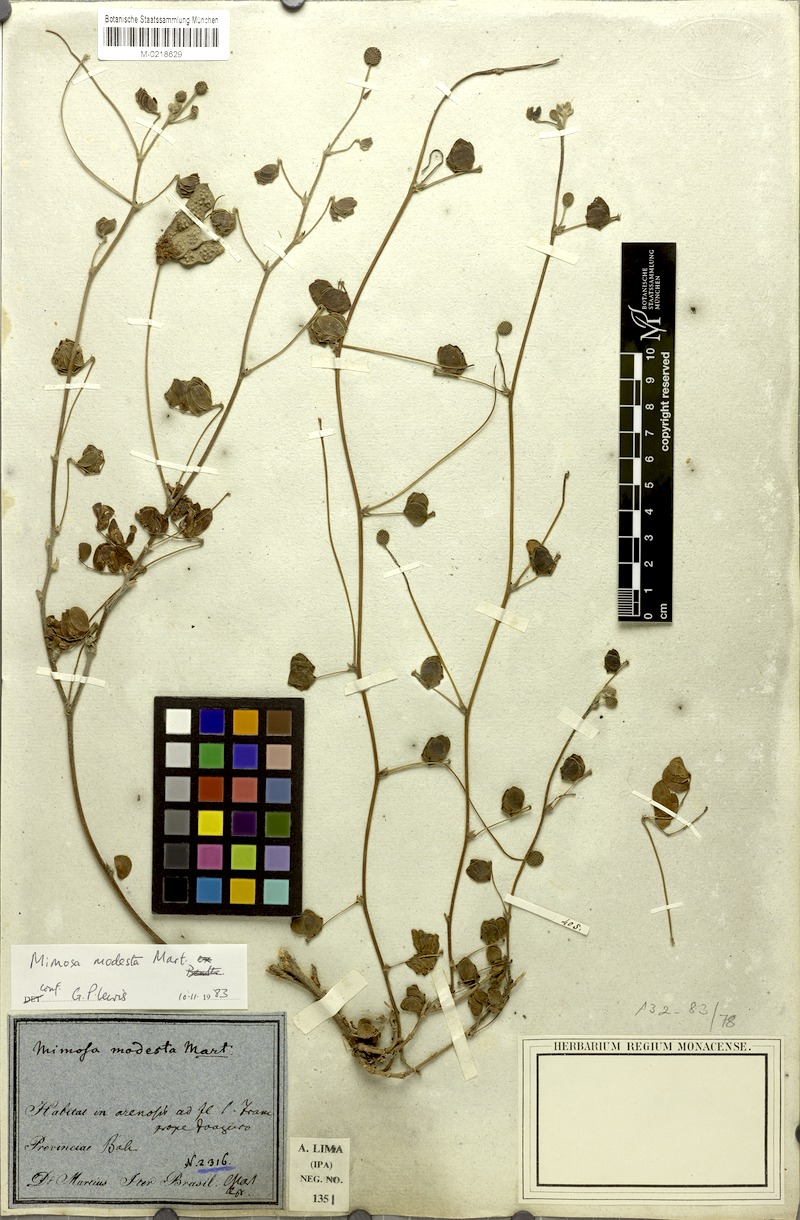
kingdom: Plantae
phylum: Tracheophyta
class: Magnoliopsida
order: Fabales
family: Fabaceae
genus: Mimosa
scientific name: Mimosa modesta
